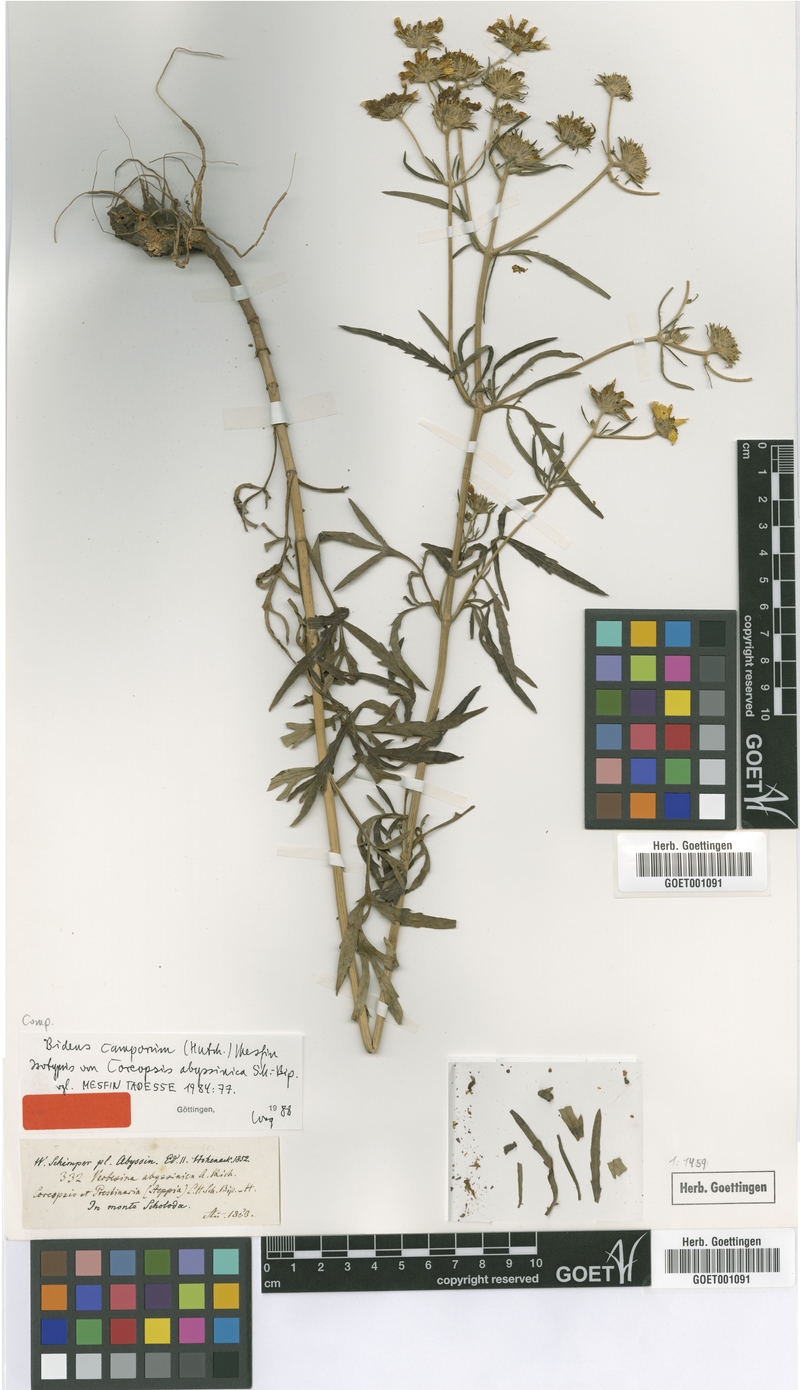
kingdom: Plantae
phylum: Tracheophyta
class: Magnoliopsida
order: Asterales
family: Asteraceae
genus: Bidens
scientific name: Bidens camporum
